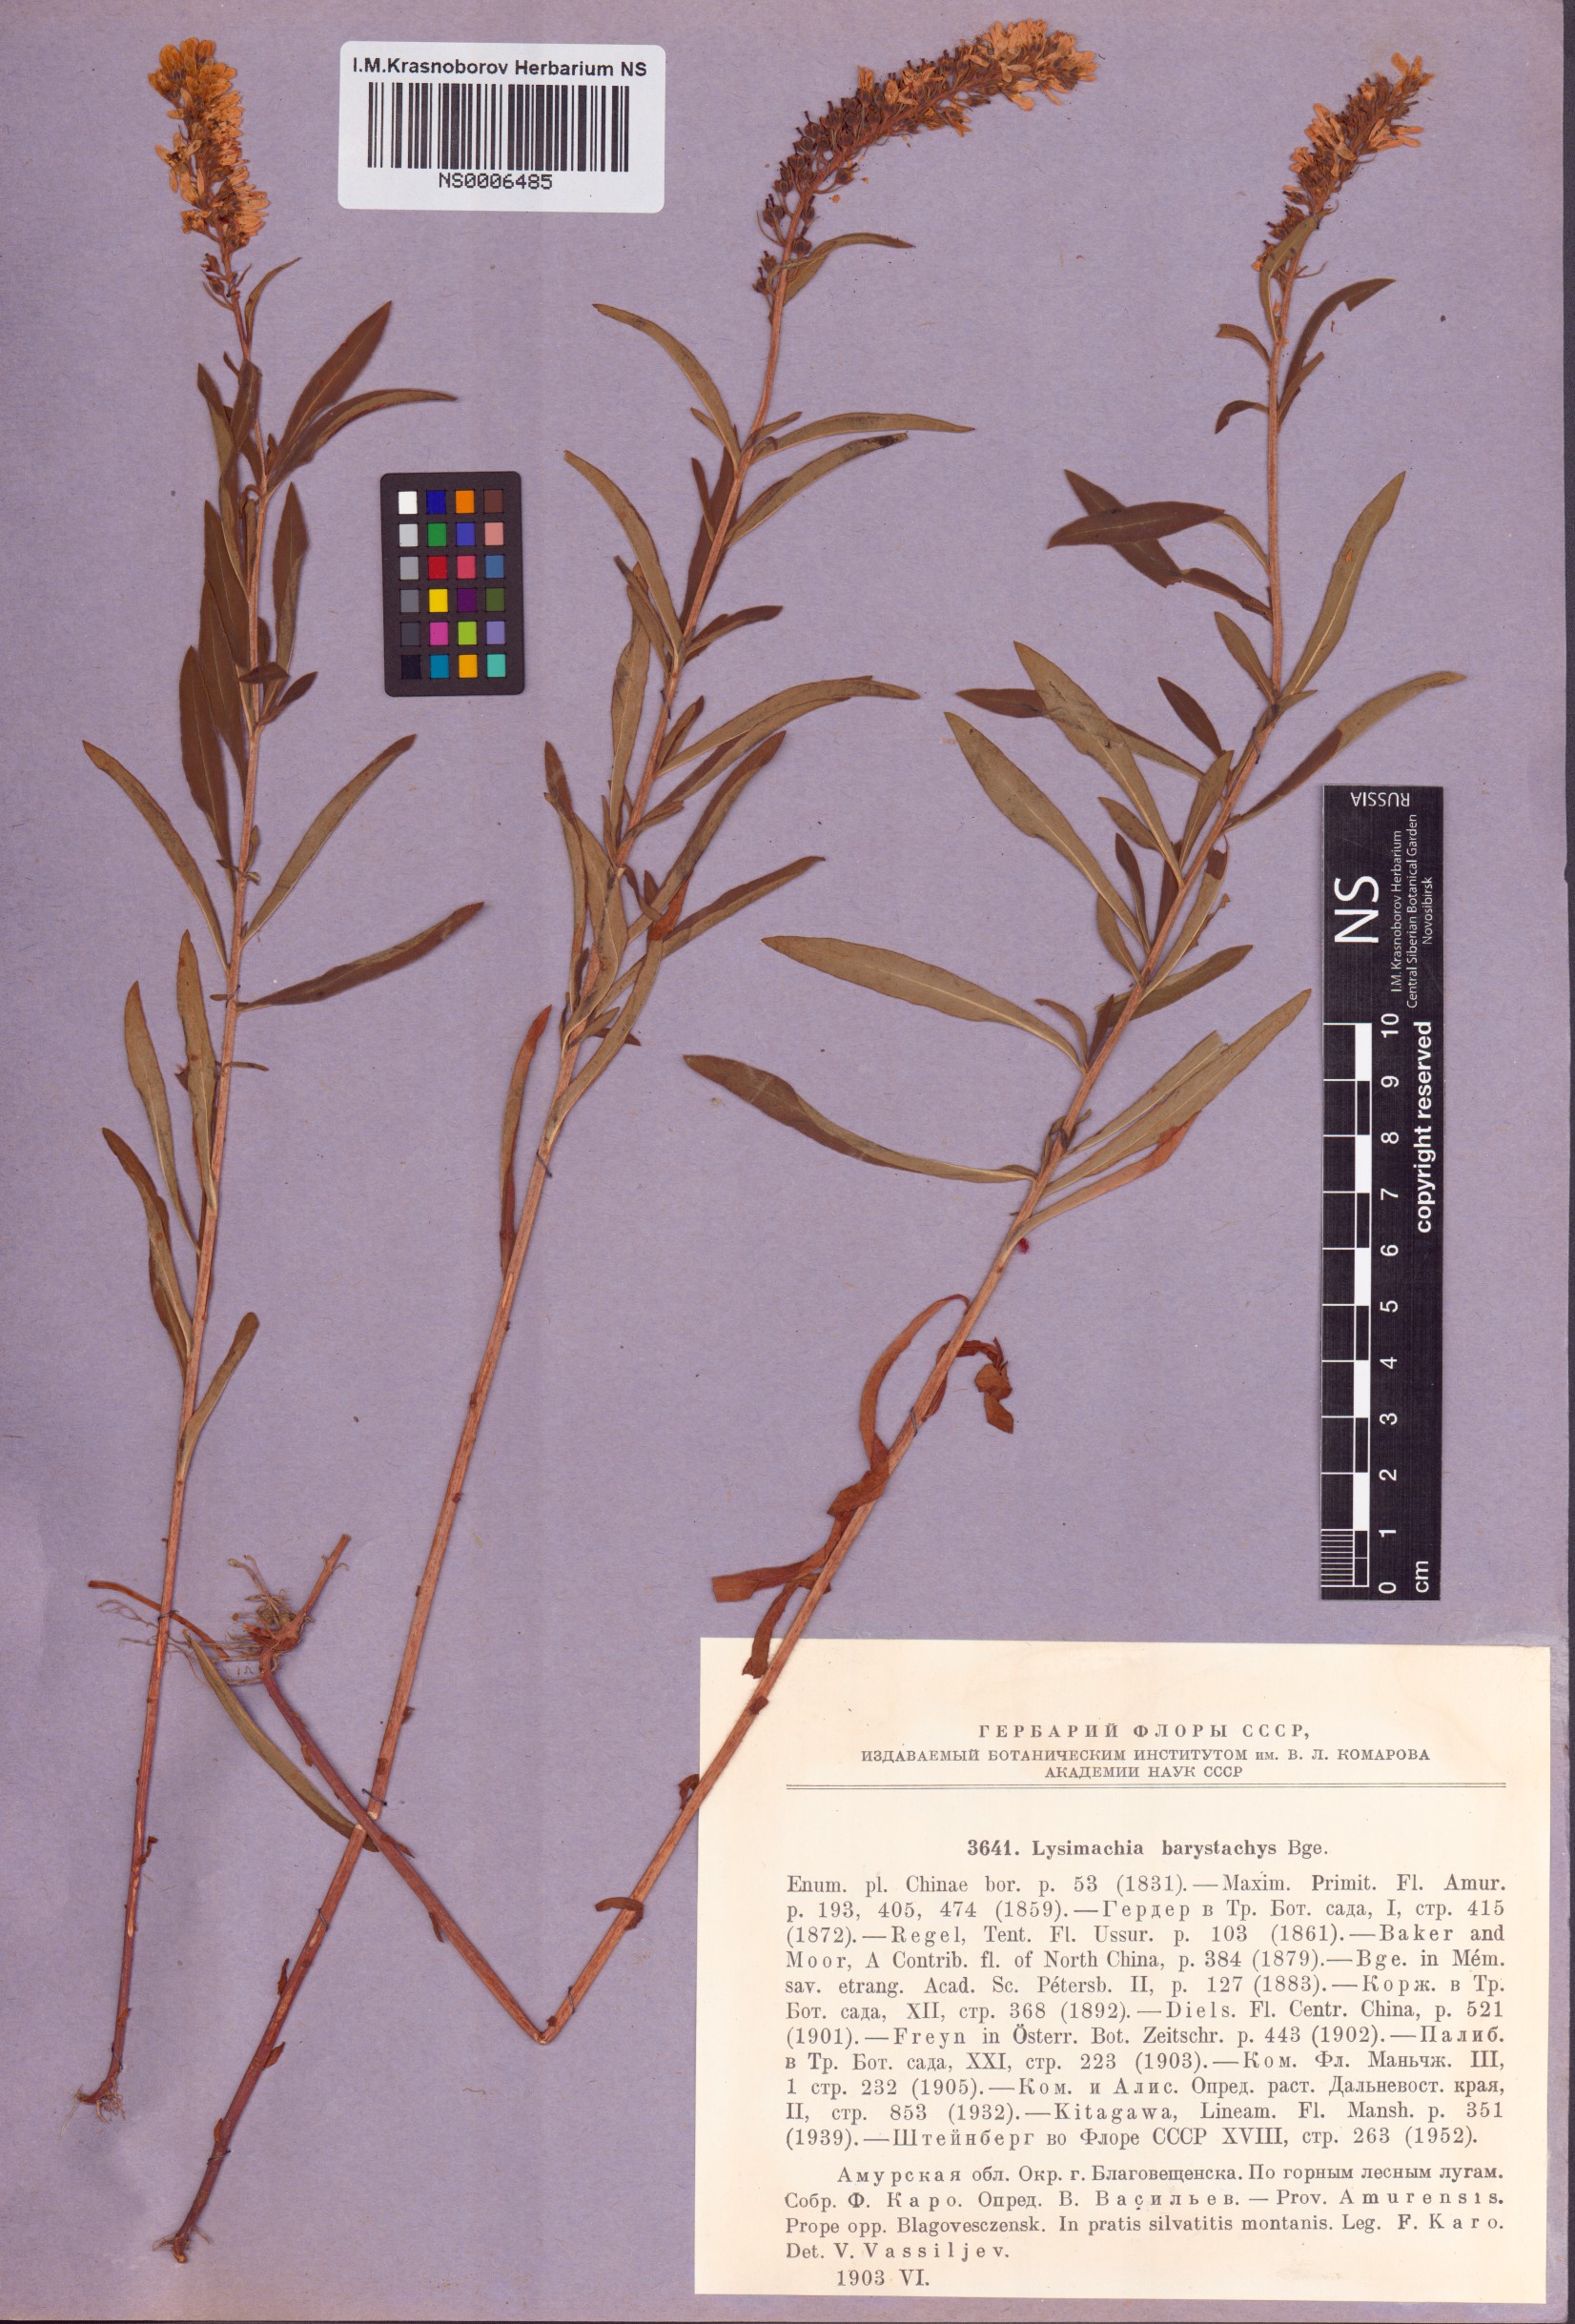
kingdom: Plantae
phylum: Tracheophyta
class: Magnoliopsida
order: Ericales
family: Primulaceae
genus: Lysimachia
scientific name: Lysimachia barystachys
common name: Manchurian yellow loosestrife
